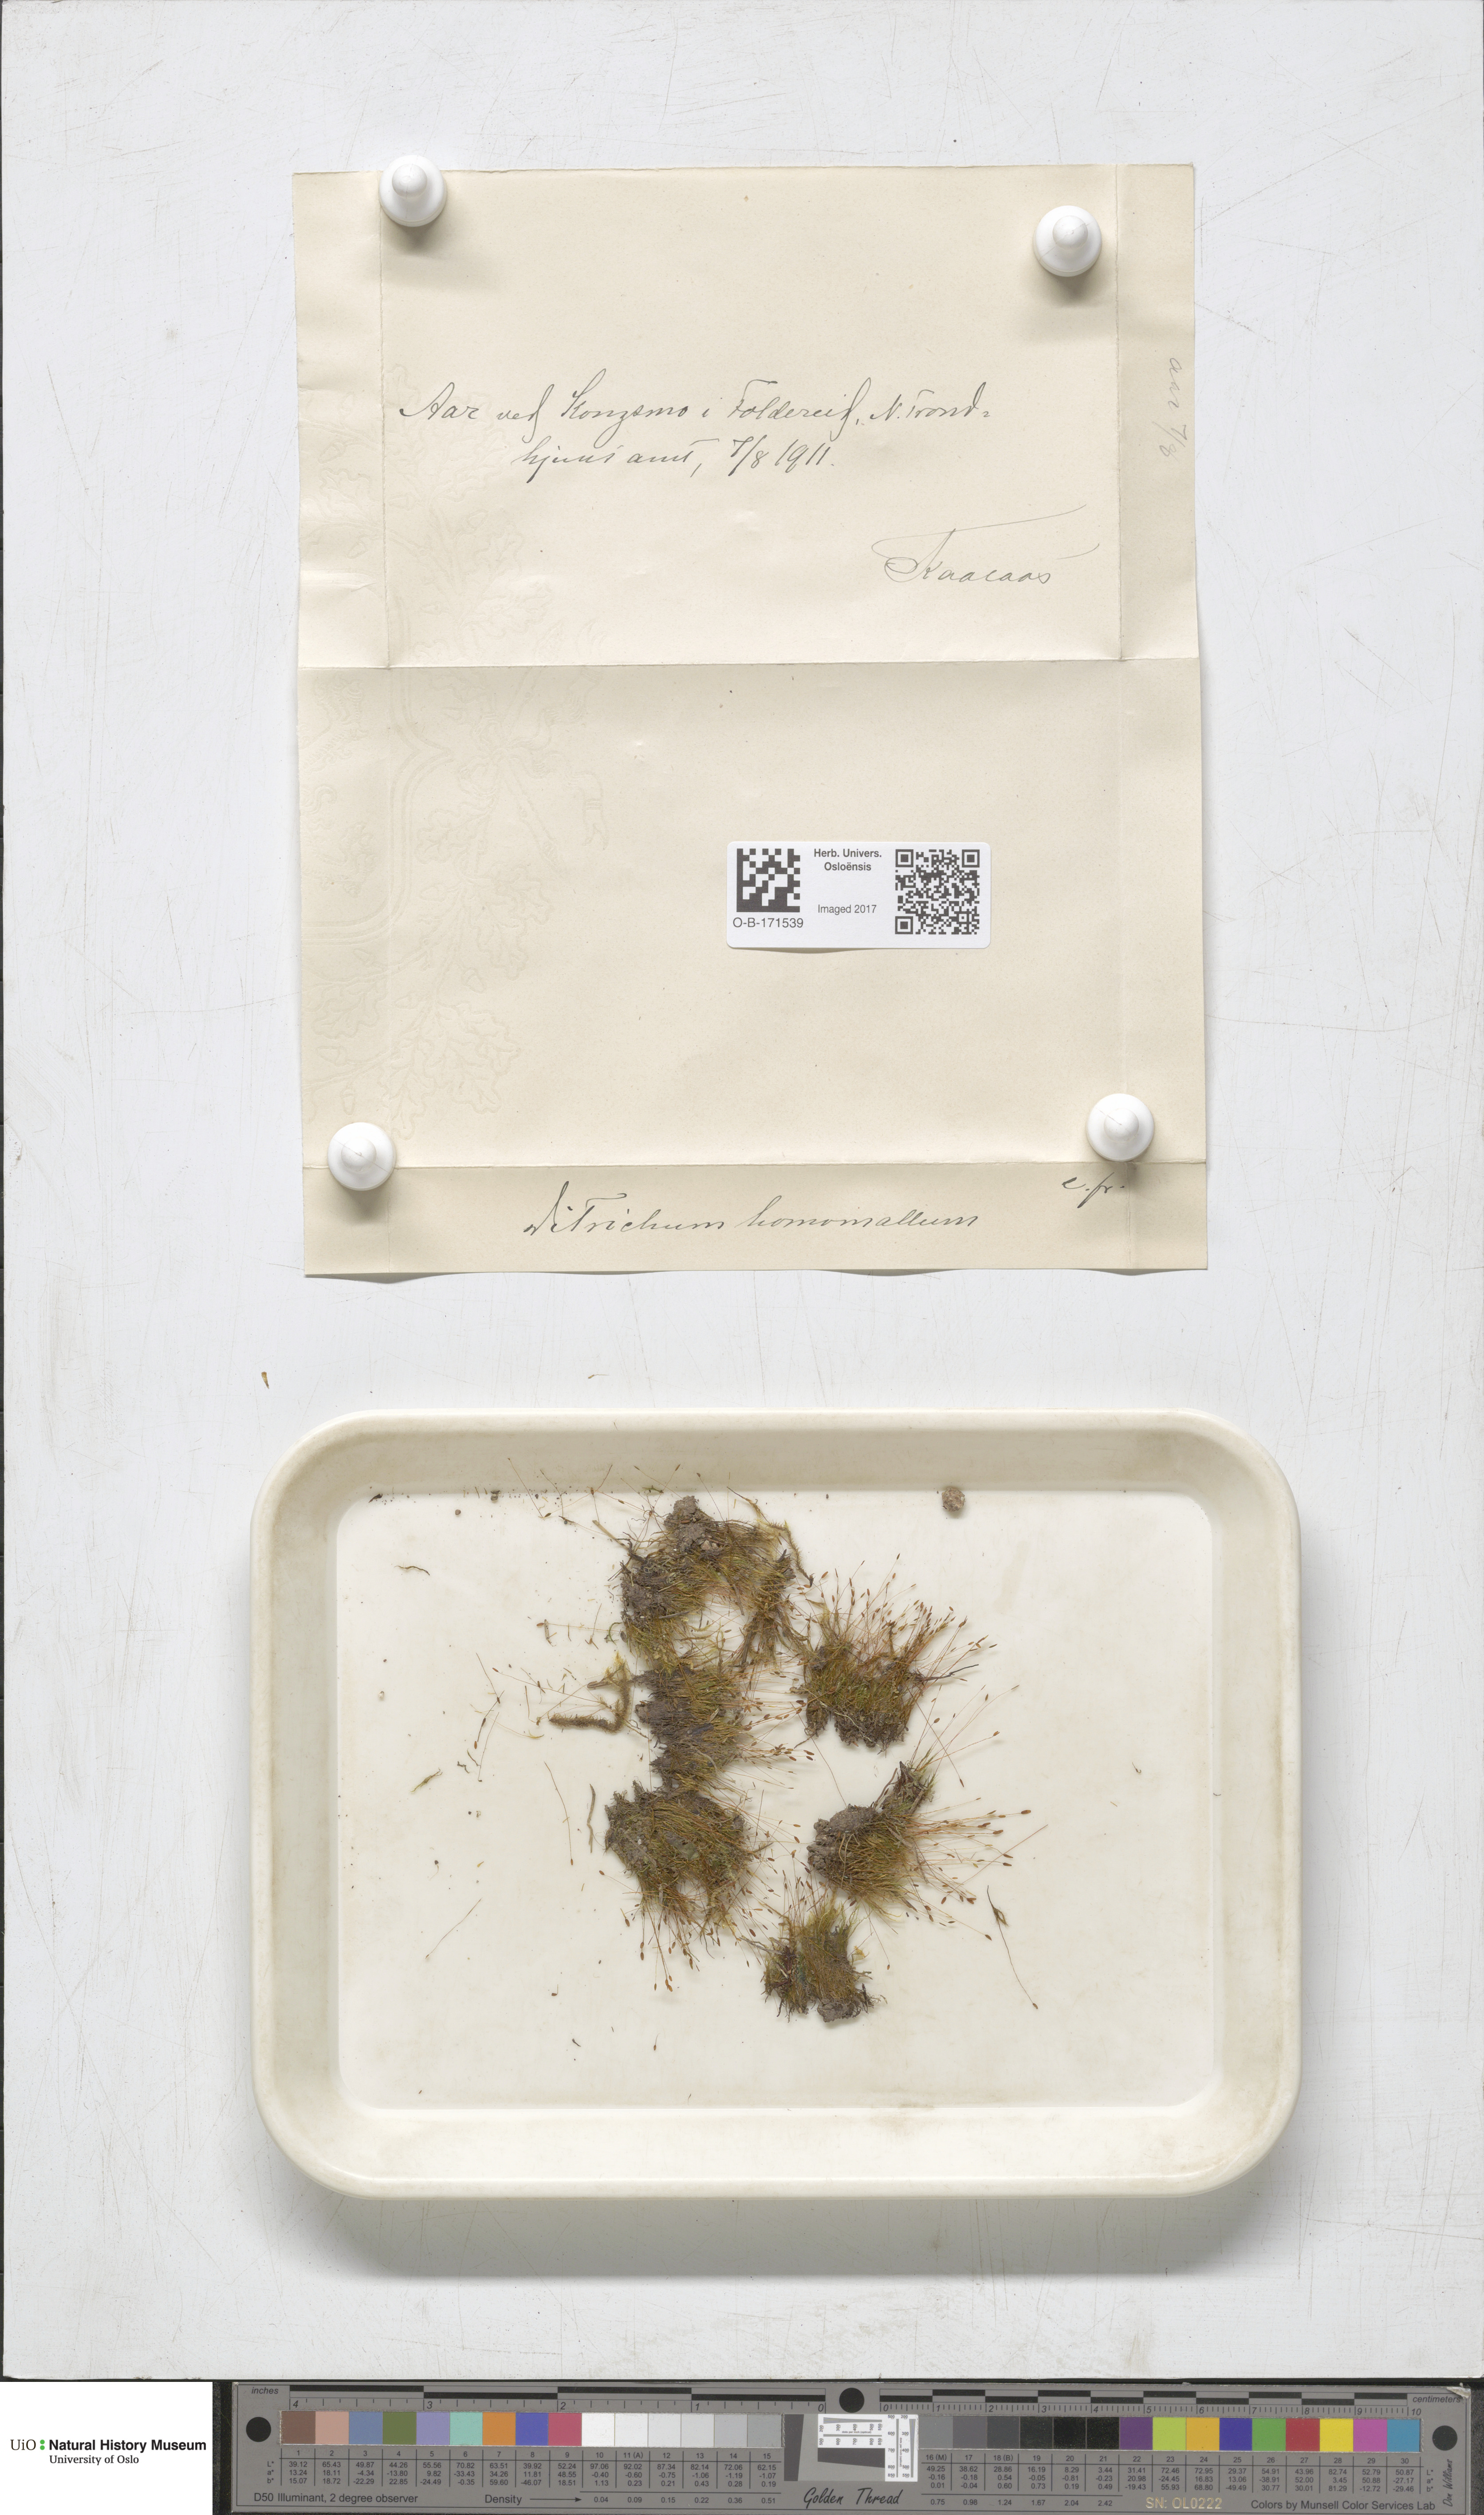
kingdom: Plantae
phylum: Bryophyta
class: Bryopsida
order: Dicranales
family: Ditrichaceae
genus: Ditrichum
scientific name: Ditrichum heteromallum
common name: Curve-leaved ditrichum
